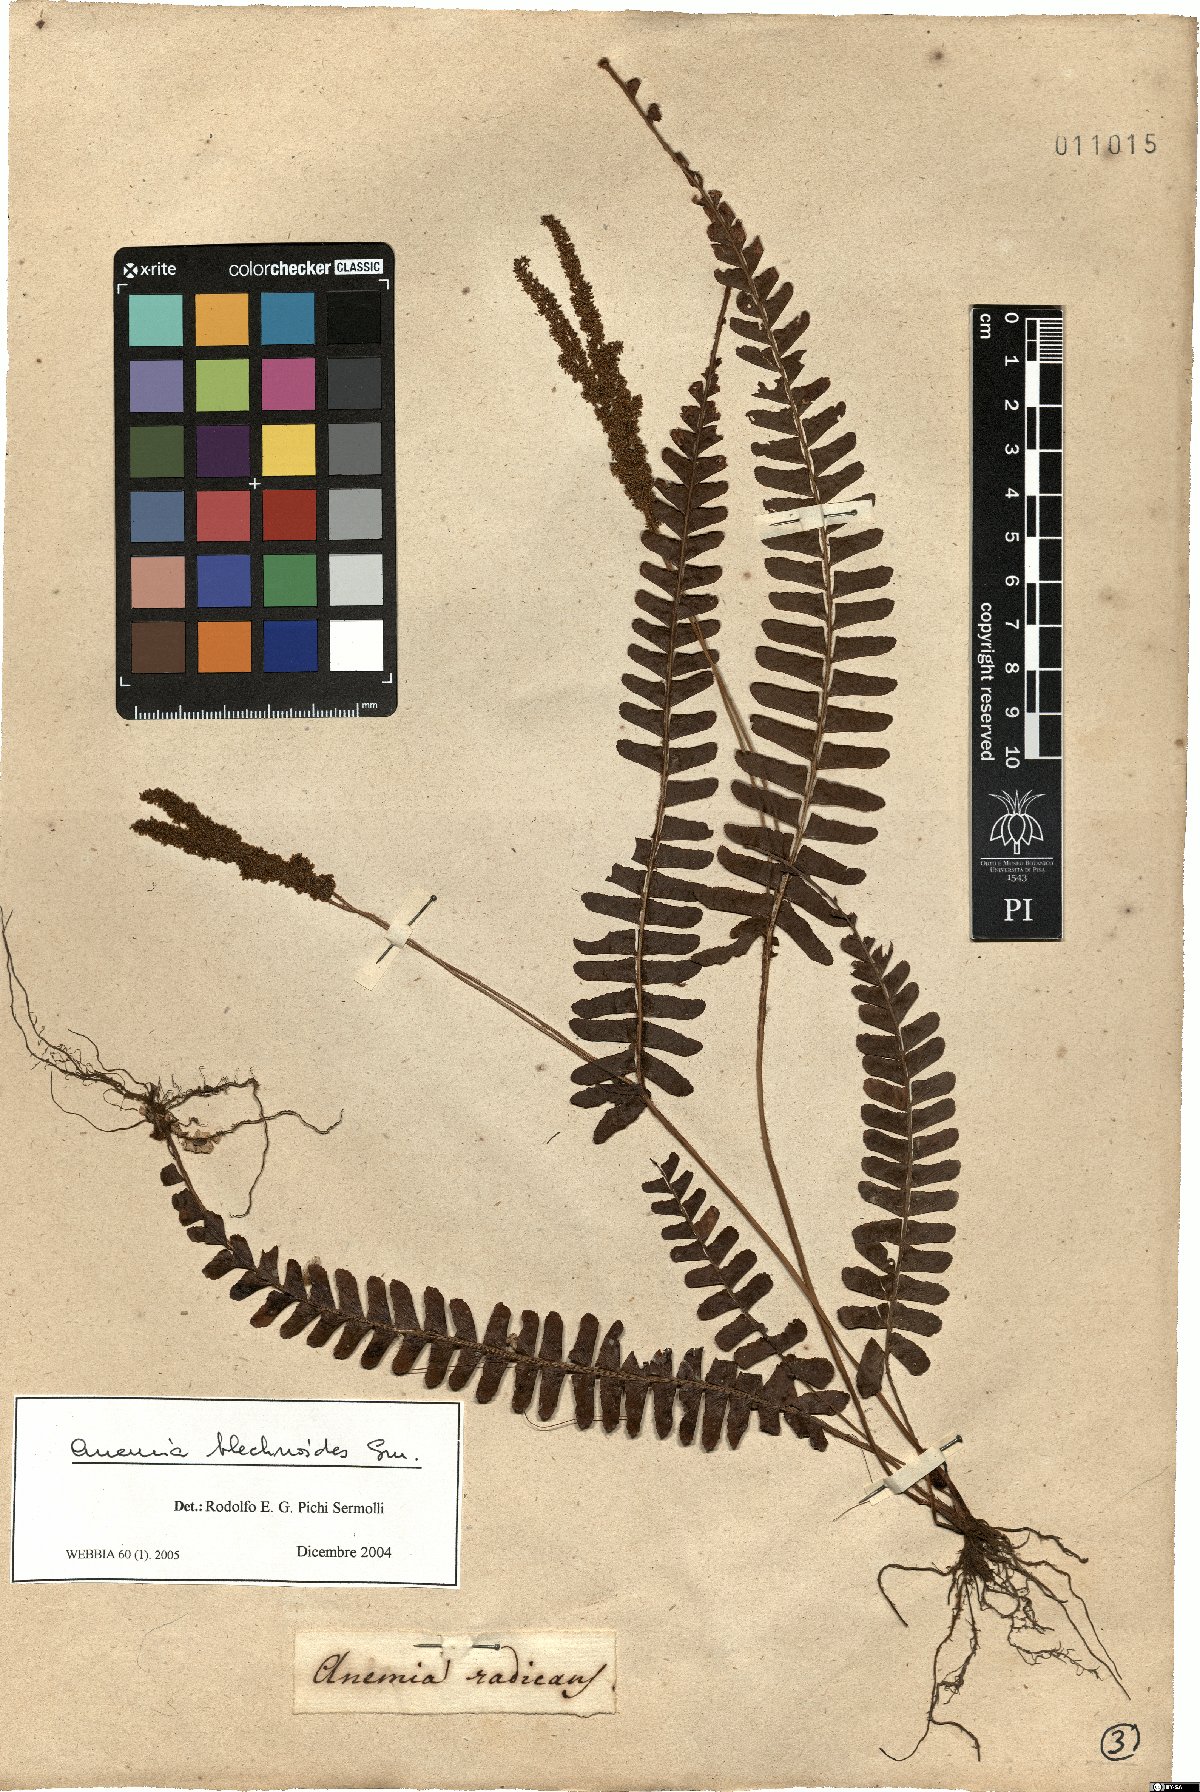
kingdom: Plantae
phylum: Tracheophyta
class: Polypodiopsida
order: Schizaeales
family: Anemiaceae
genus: Anemia
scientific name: Anemia blechnoides
